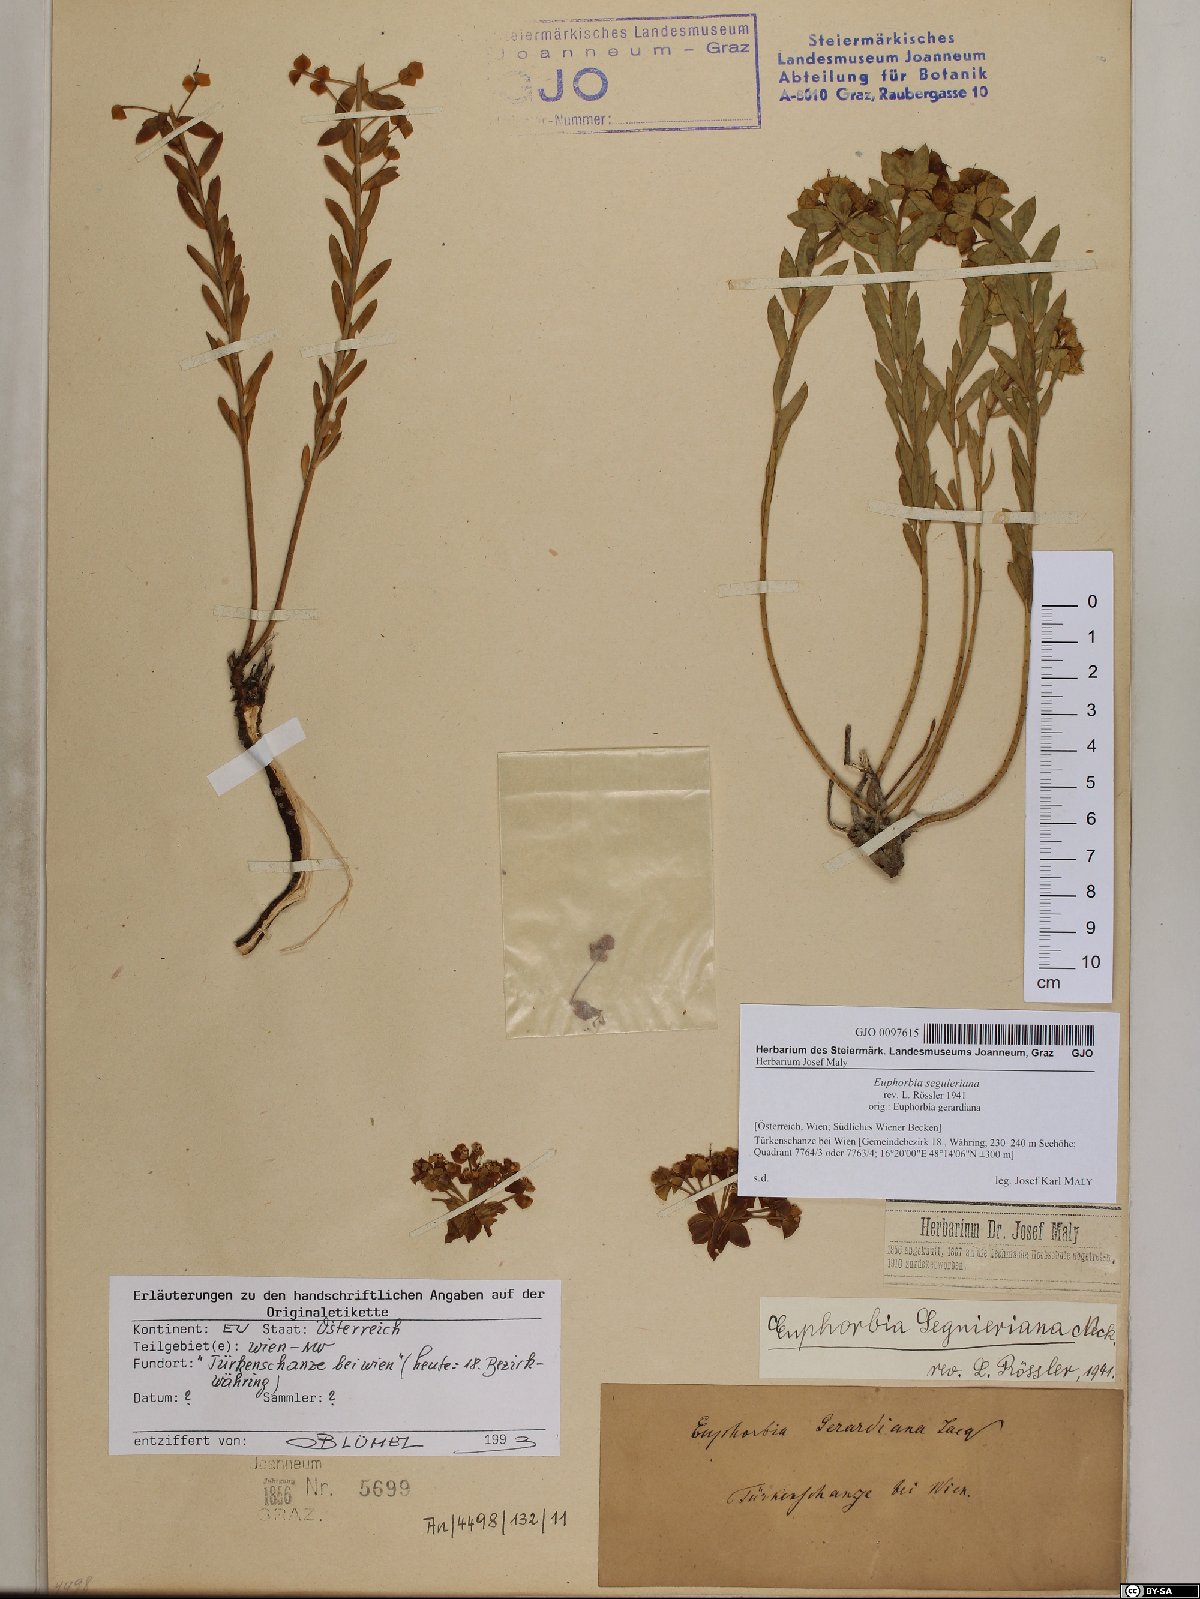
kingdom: Plantae
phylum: Tracheophyta
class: Magnoliopsida
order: Malpighiales
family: Euphorbiaceae
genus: Euphorbia
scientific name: Euphorbia seguieriana
